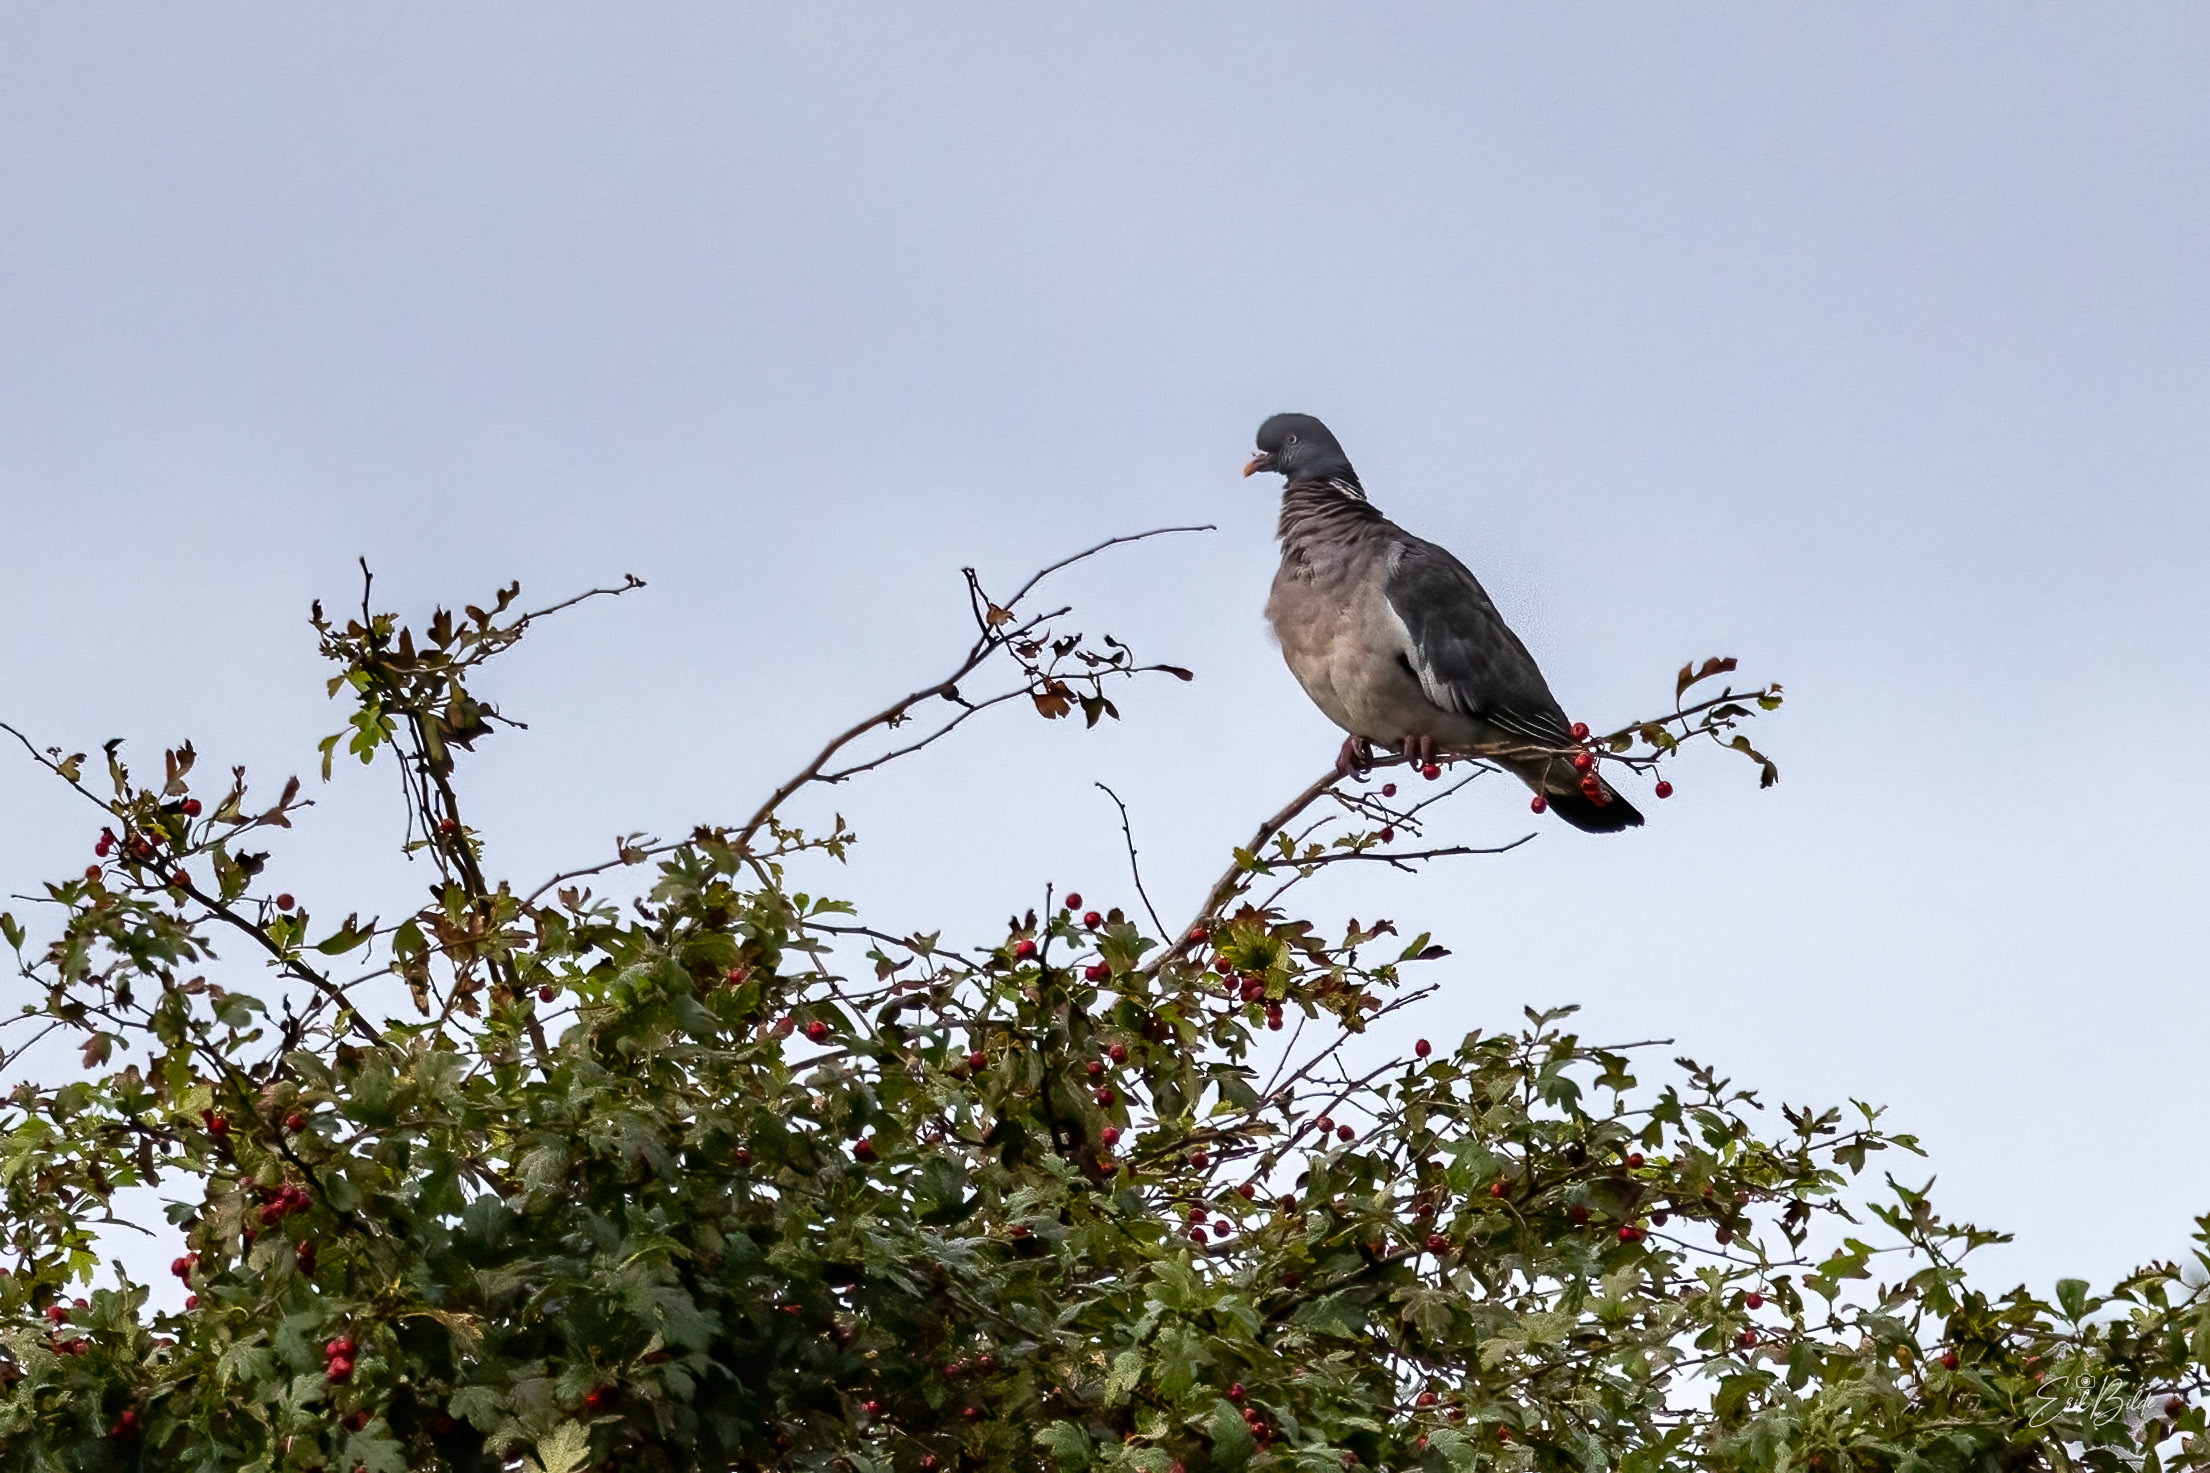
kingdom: Animalia
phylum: Chordata
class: Aves
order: Columbiformes
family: Columbidae
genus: Columba
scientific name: Columba palumbus
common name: Ringdue
